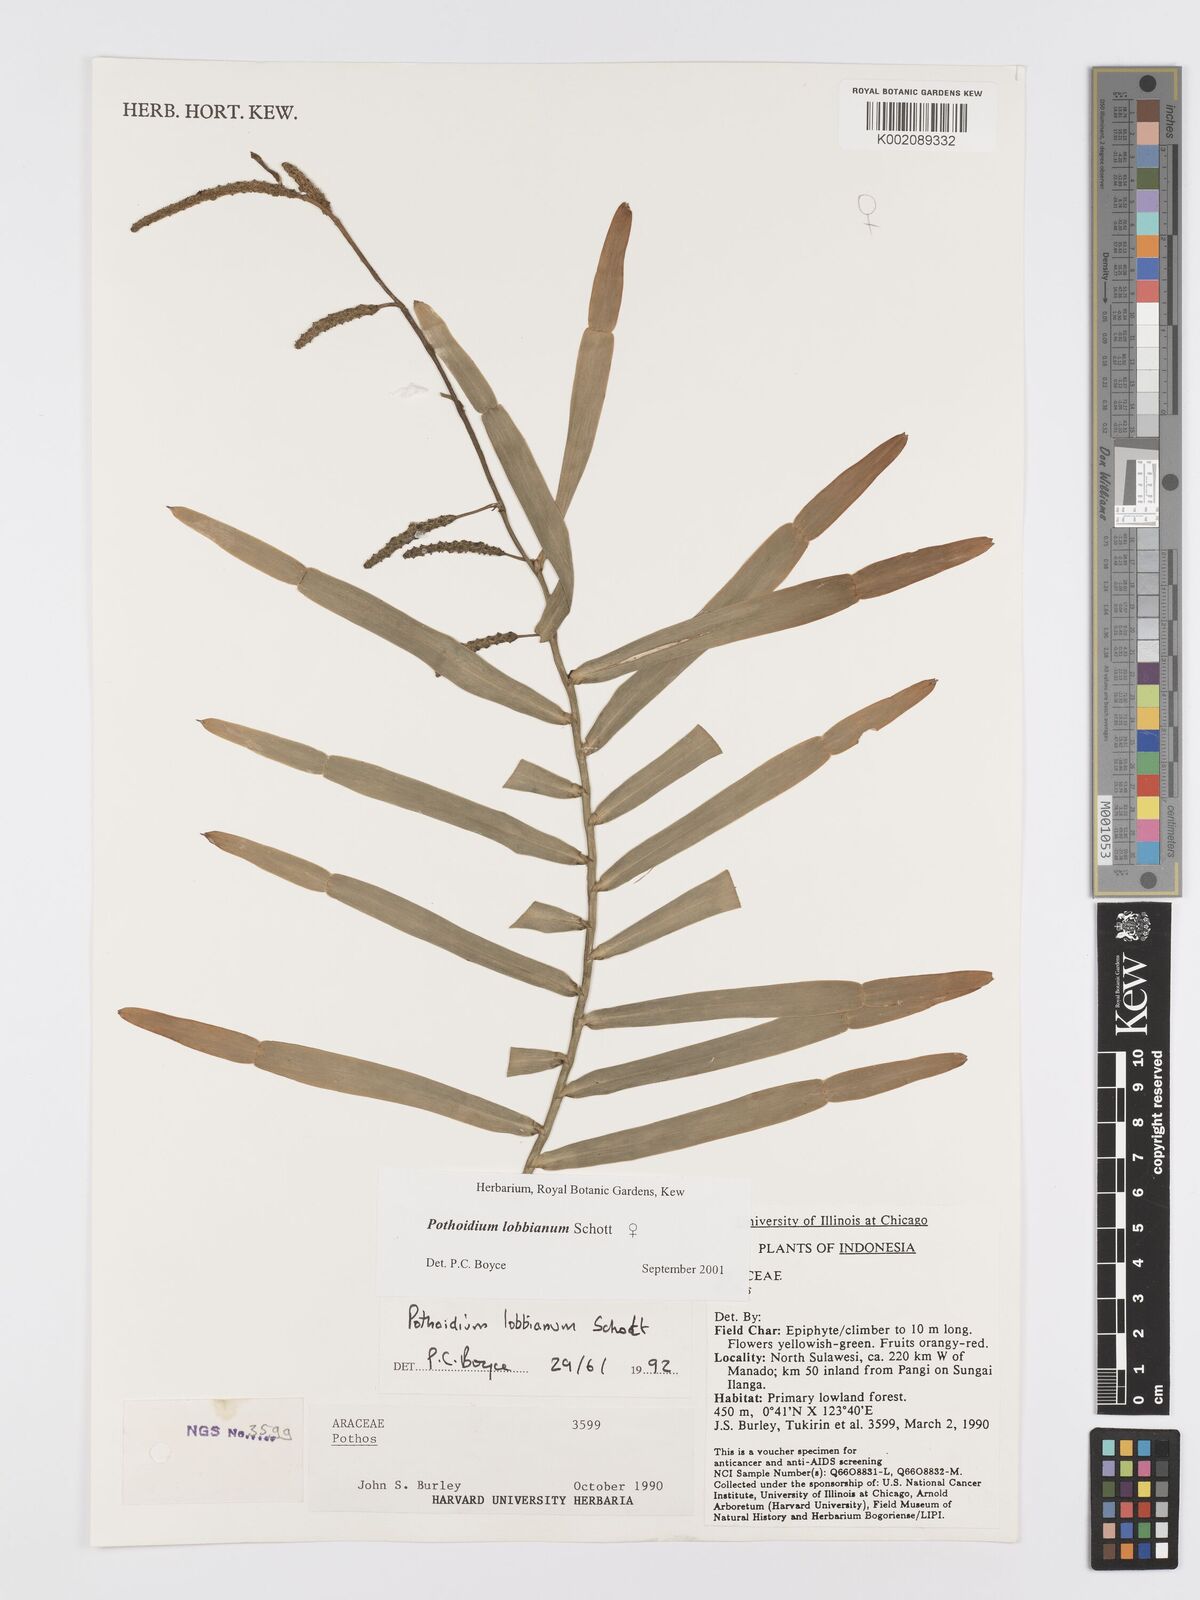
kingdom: Plantae
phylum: Tracheophyta
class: Liliopsida
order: Alismatales
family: Araceae
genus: Pothoidium
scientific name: Pothoidium lobbianum
